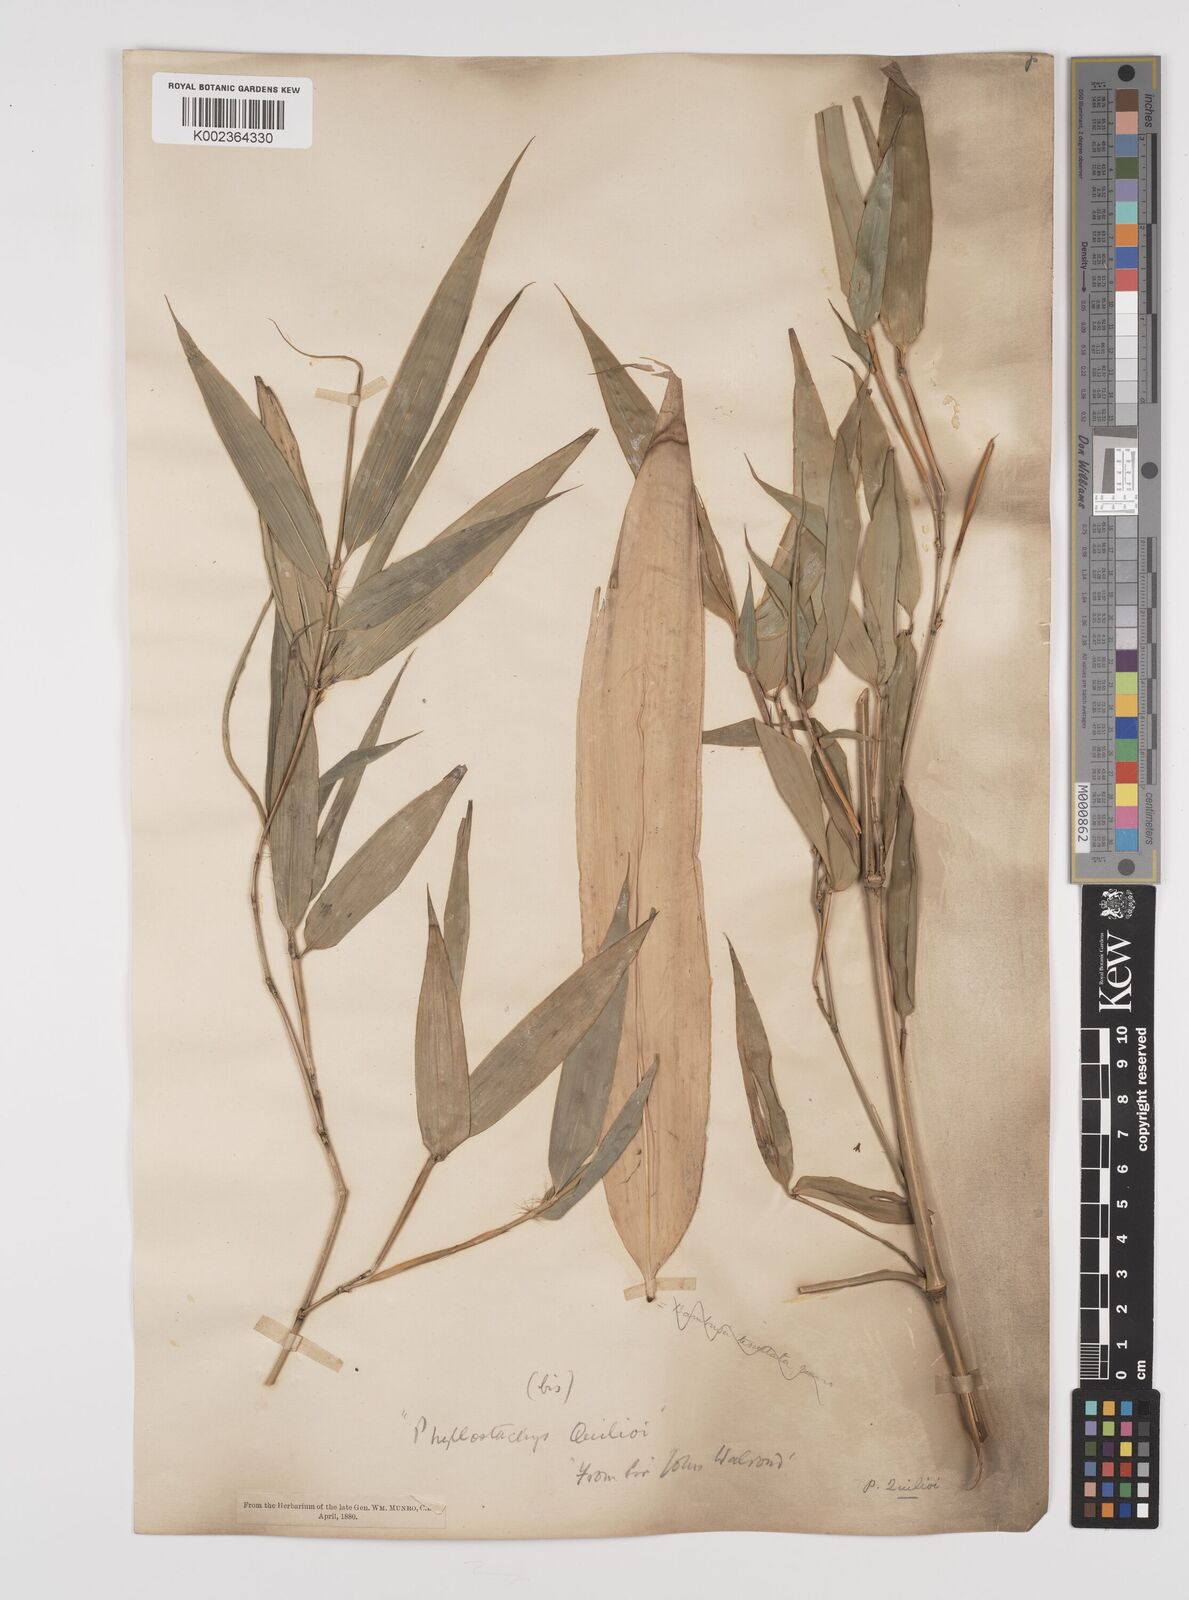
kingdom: Plantae
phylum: Tracheophyta
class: Liliopsida
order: Poales
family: Poaceae
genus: Phyllostachys
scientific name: Phyllostachys reticulata
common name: Bamboo
